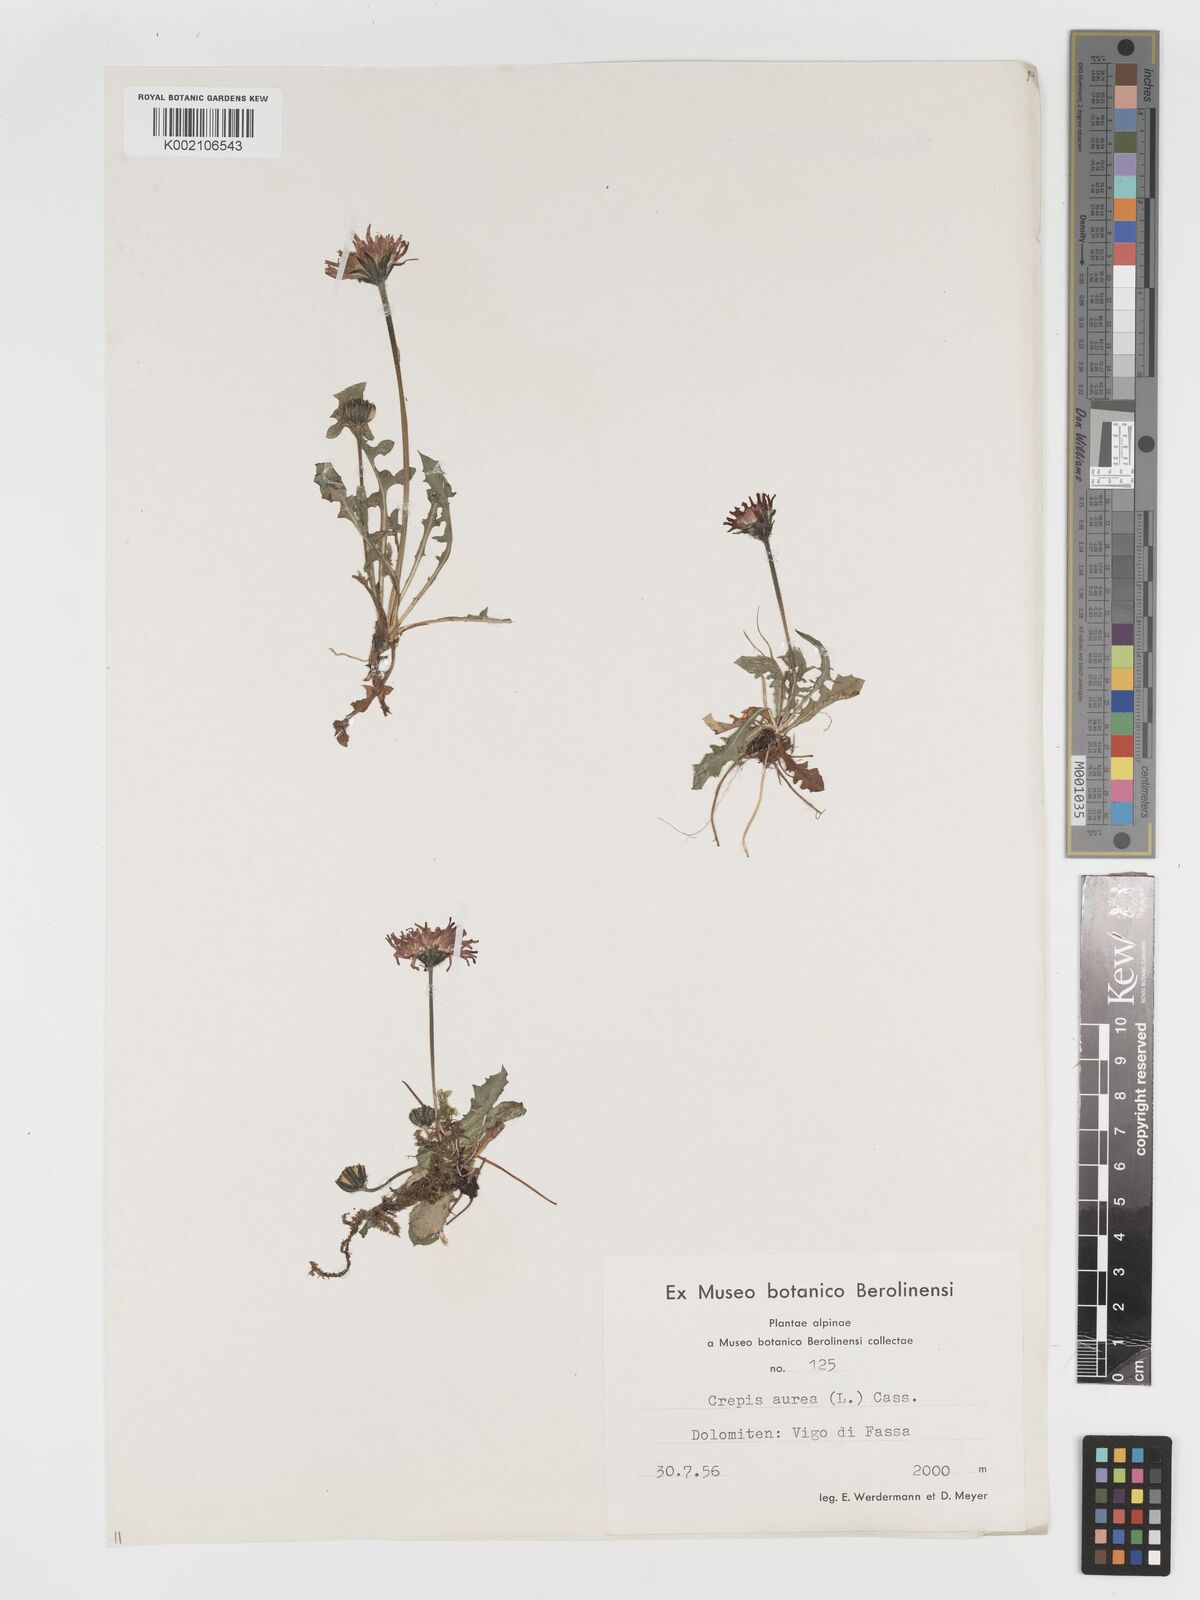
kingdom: Plantae
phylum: Tracheophyta
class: Magnoliopsida
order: Asterales
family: Asteraceae
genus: Crepis
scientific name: Crepis aurea
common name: Golden hawk's-beard
